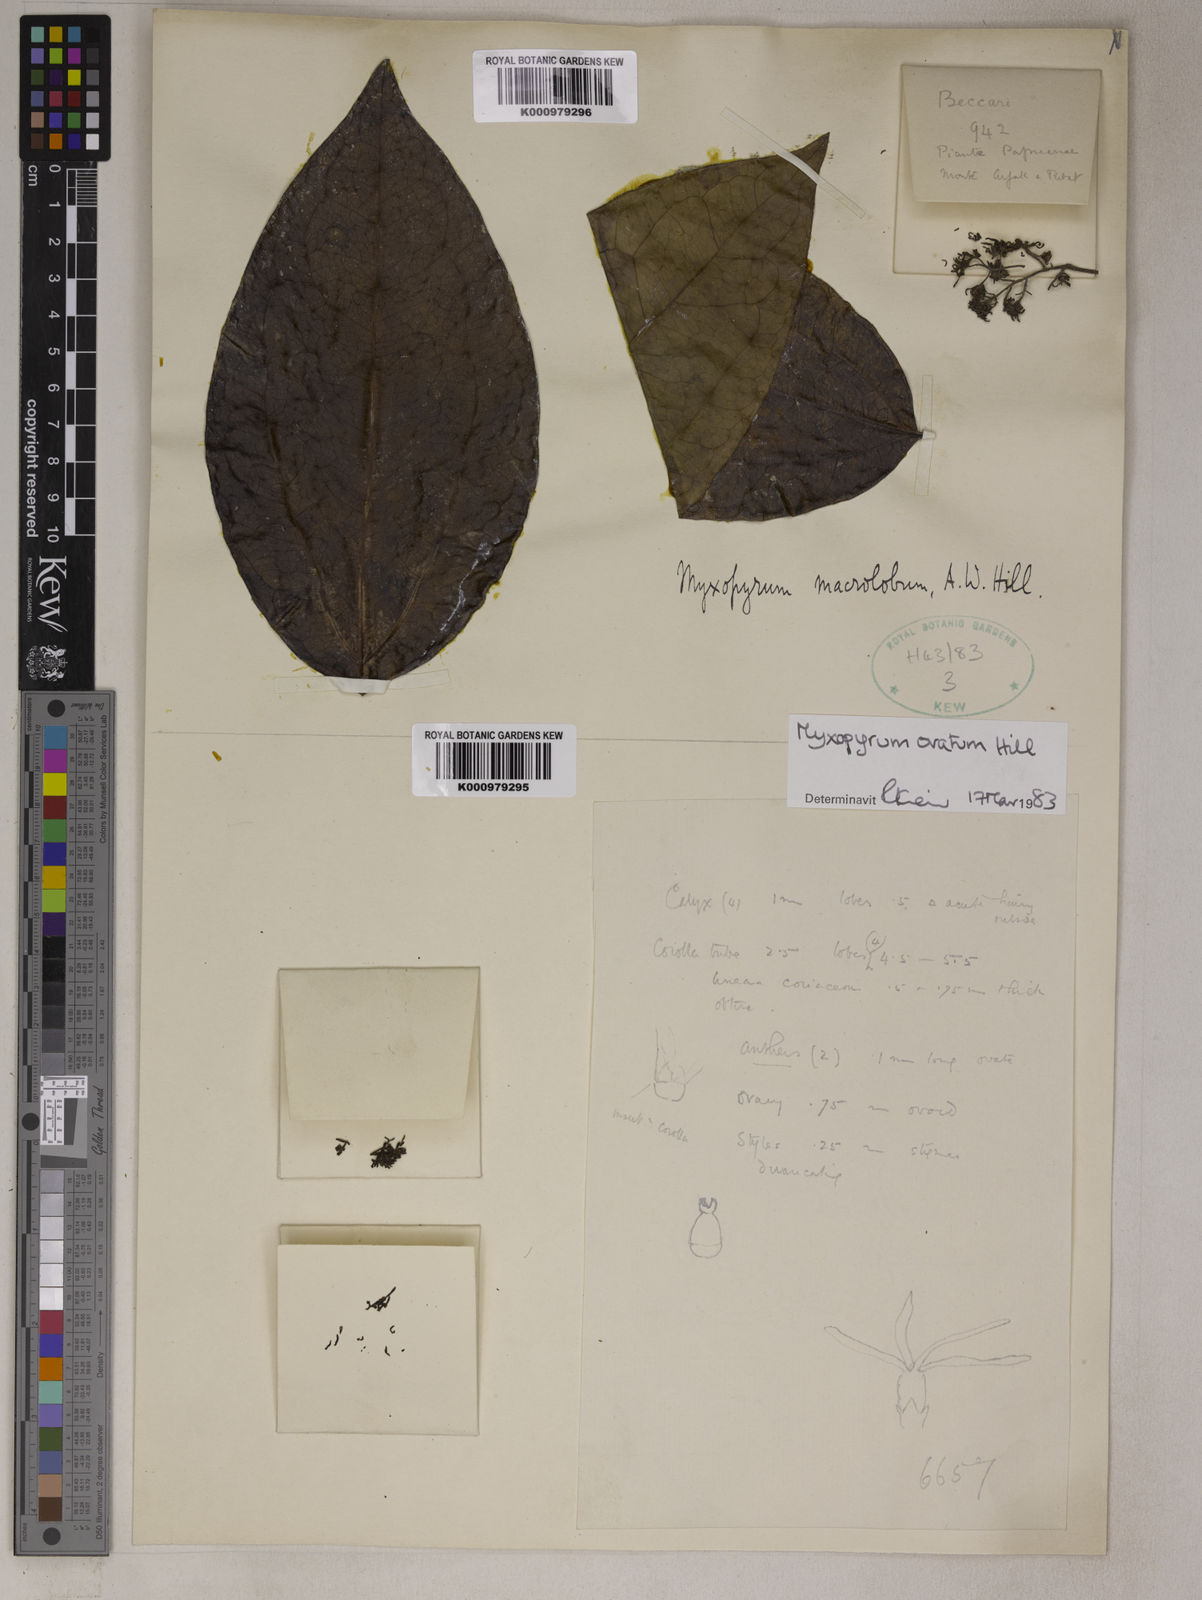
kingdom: Plantae
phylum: Tracheophyta
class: Magnoliopsida
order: Lamiales
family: Oleaceae
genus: Myxopyrum
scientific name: Myxopyrum ovatum
